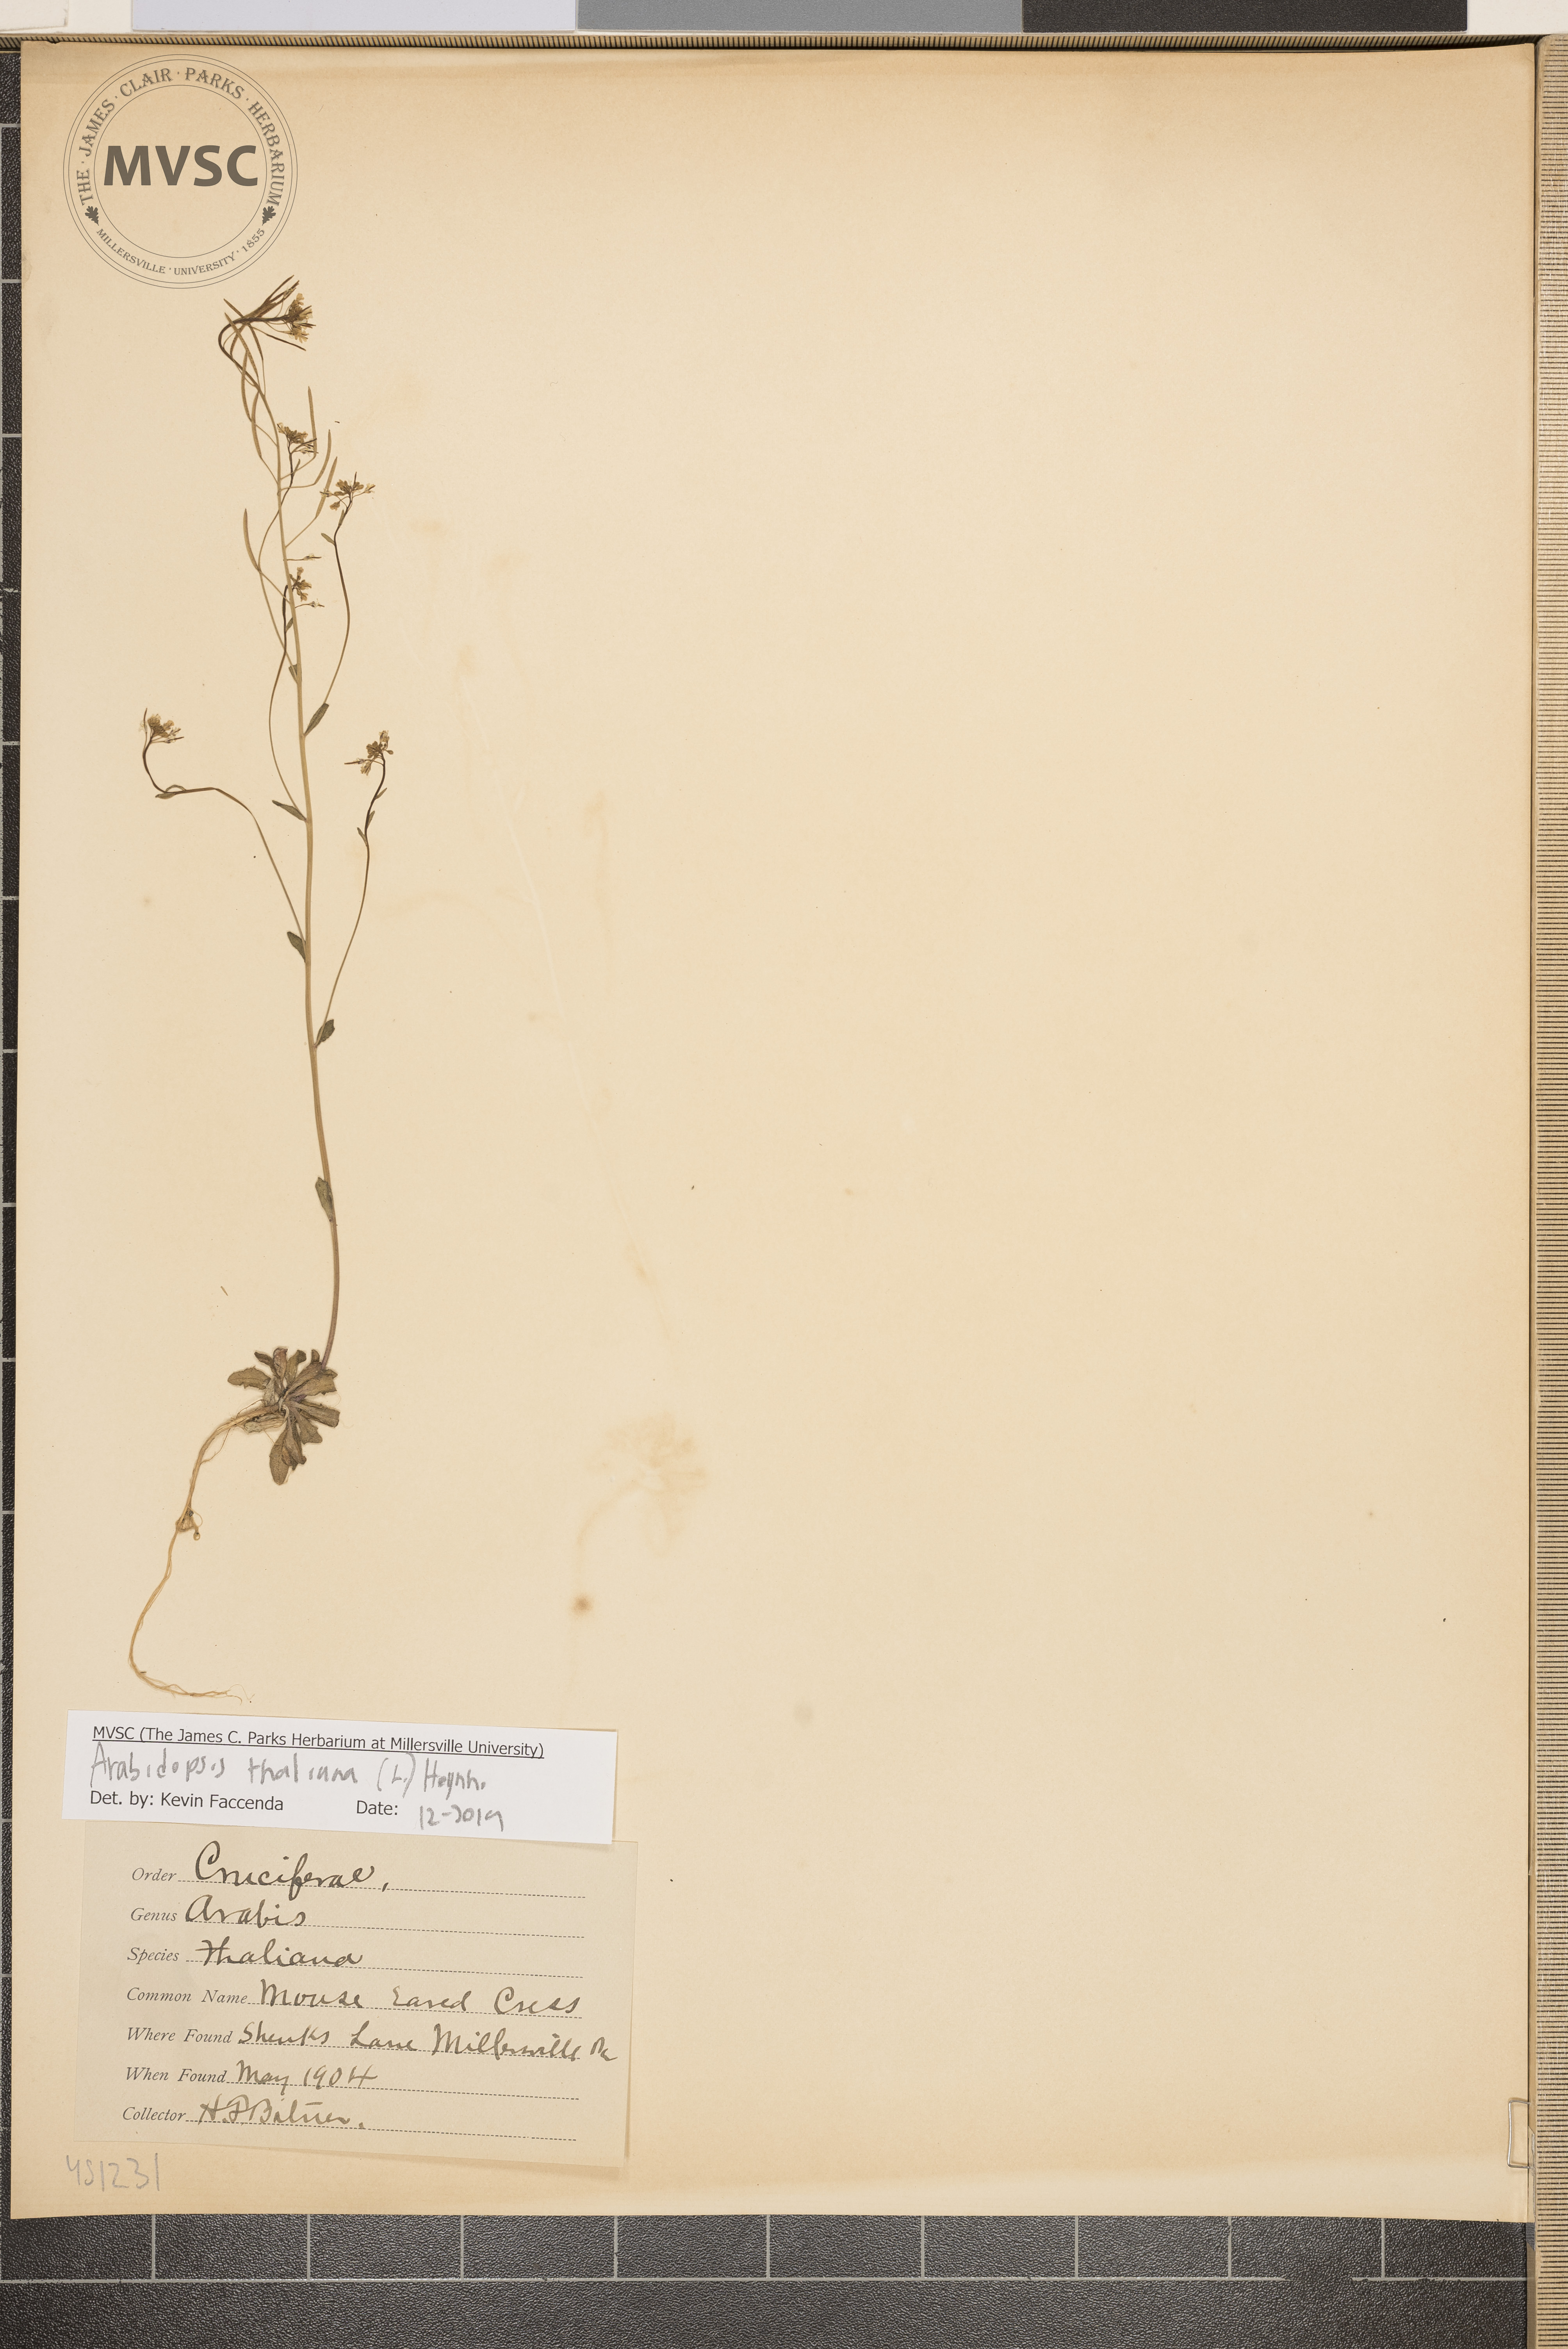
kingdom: Plantae
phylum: Tracheophyta
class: Magnoliopsida
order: Brassicales
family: Brassicaceae
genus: Arabidopsis
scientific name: Arabidopsis thaliana
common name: Thale cress
